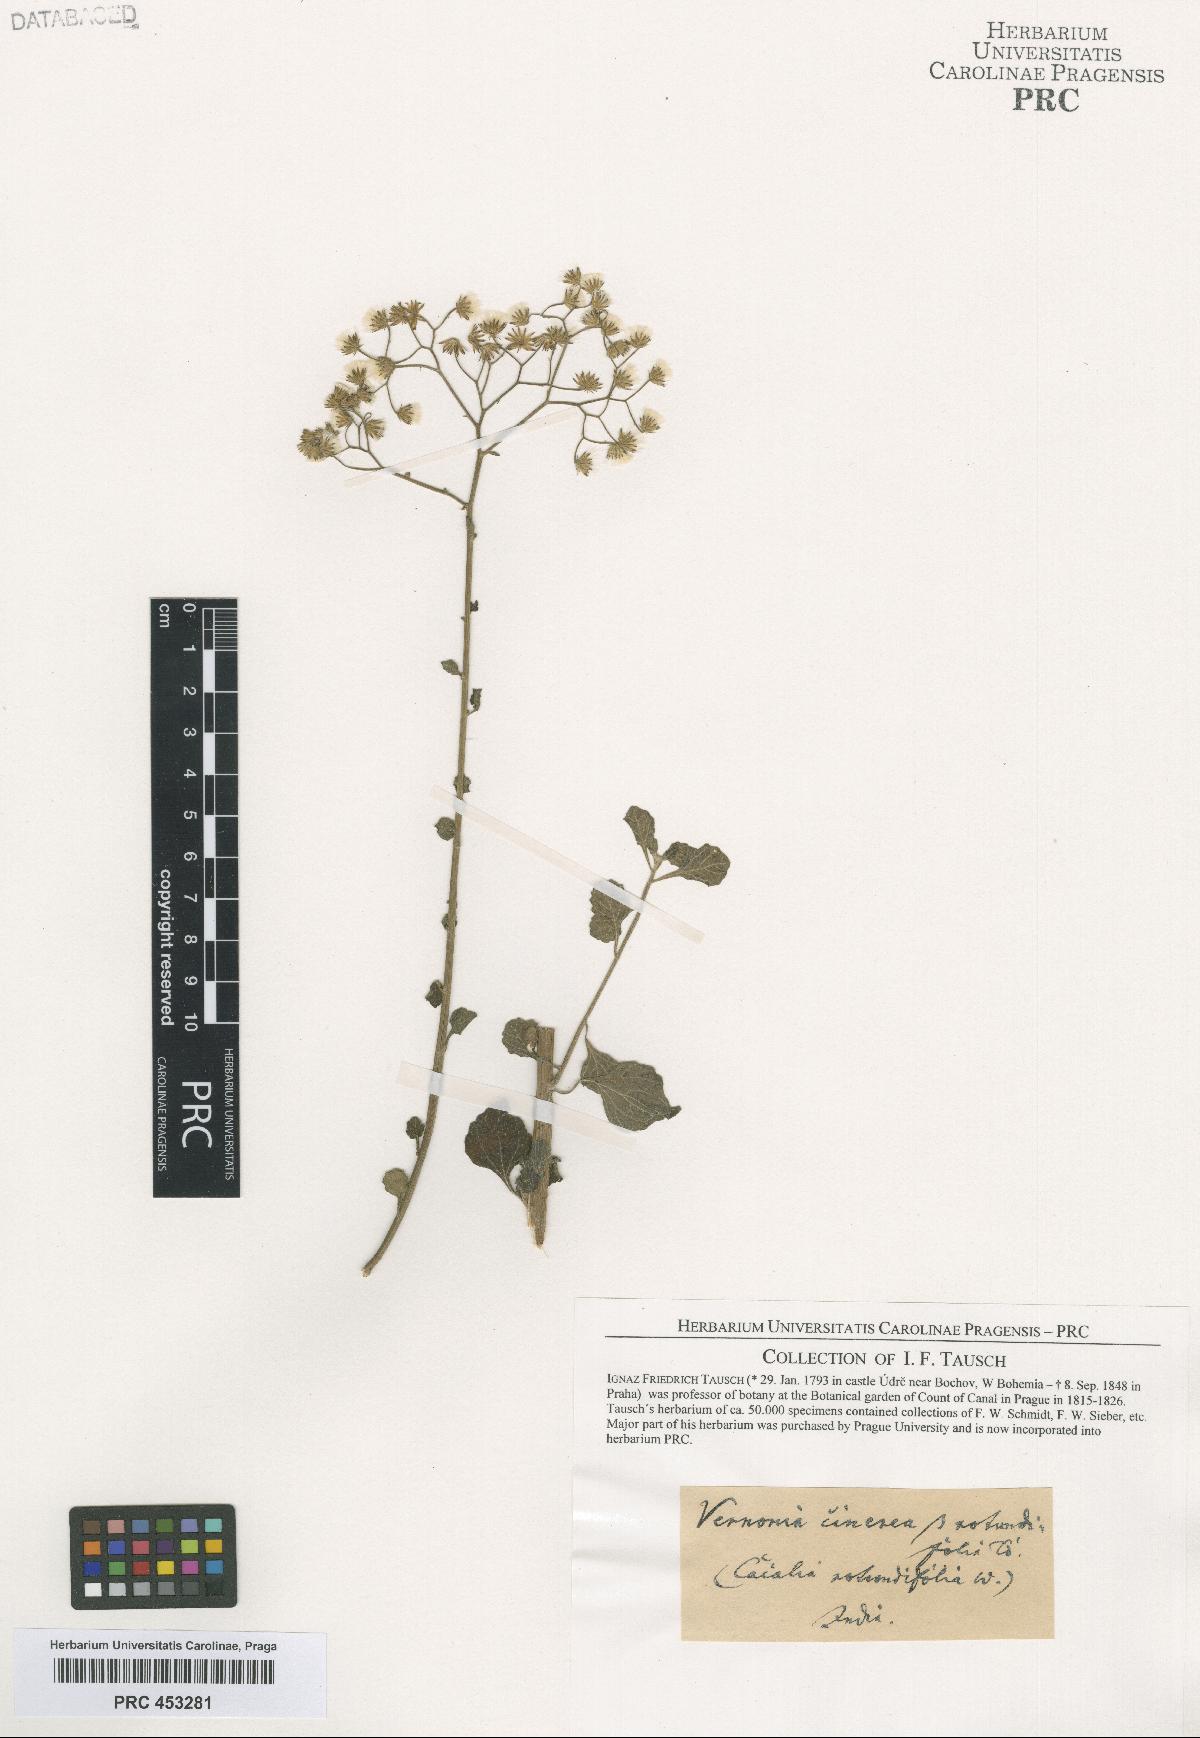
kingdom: Plantae
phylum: Tracheophyta
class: Magnoliopsida
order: Asterales
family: Asteraceae
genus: Cyanthillium
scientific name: Cyanthillium cinereum
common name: Little ironweed
